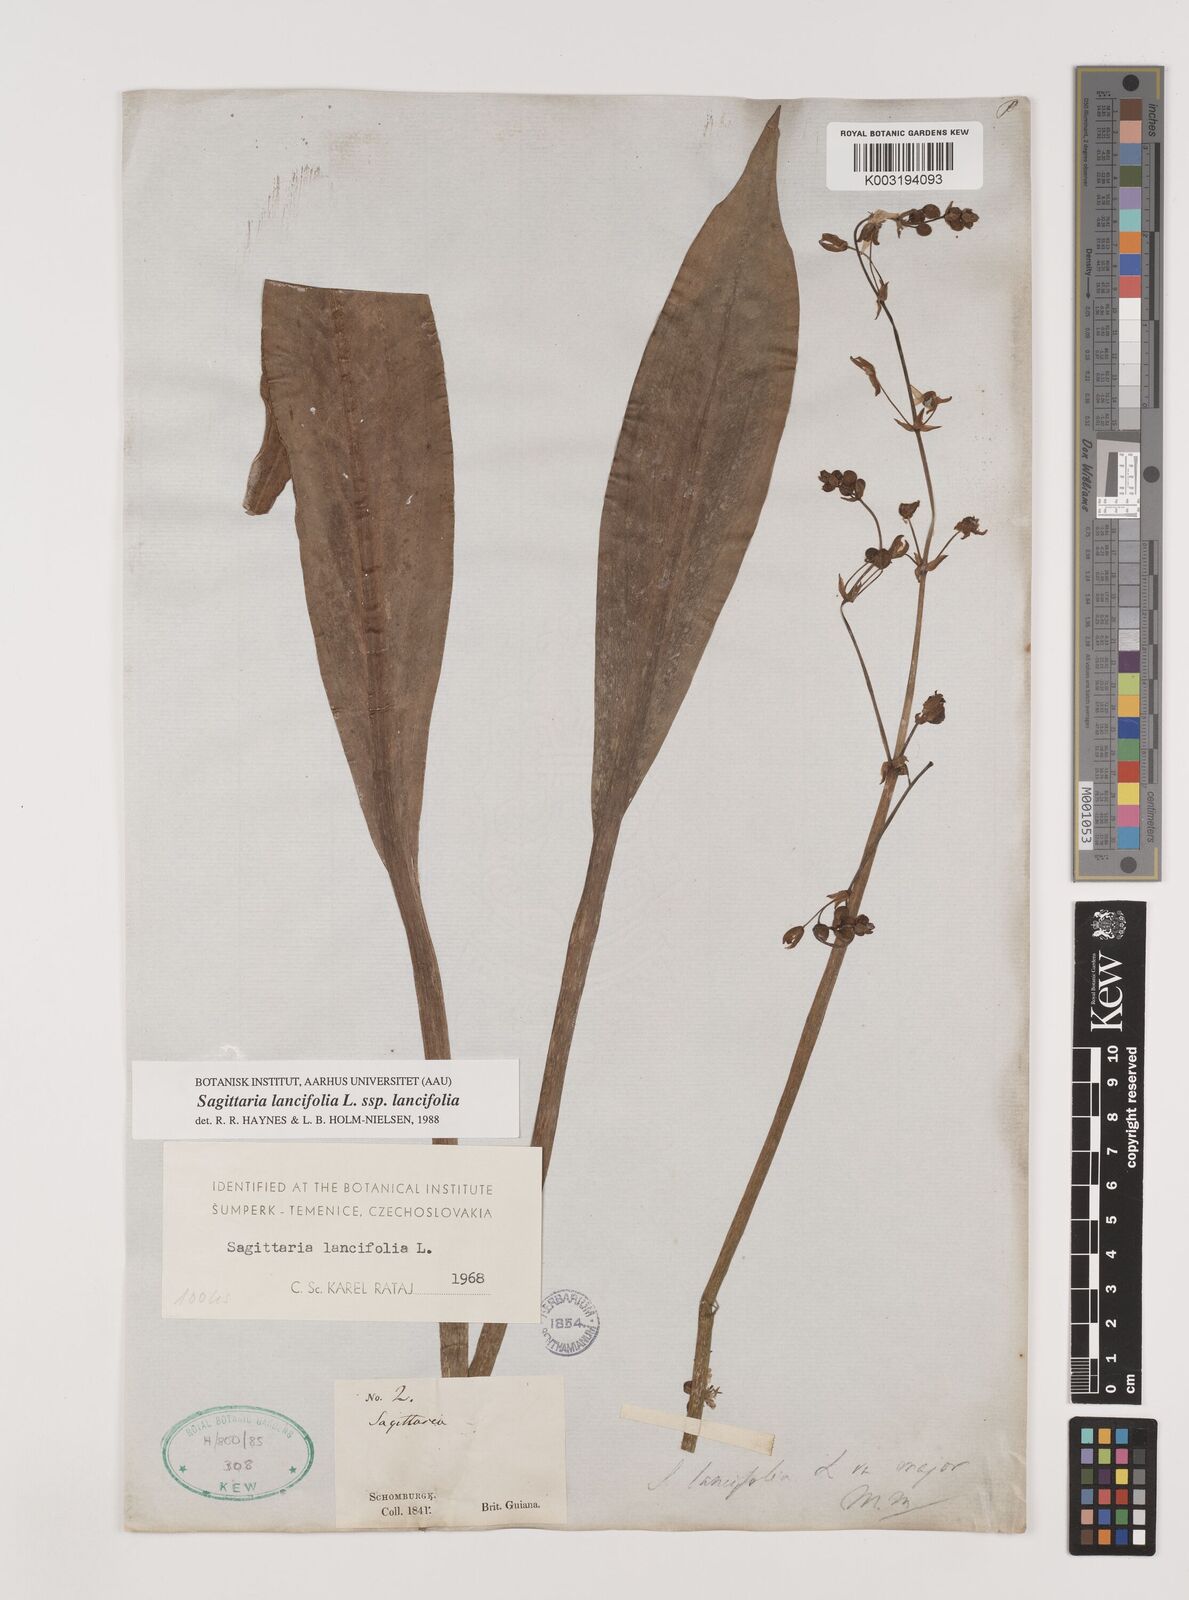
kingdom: Plantae
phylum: Tracheophyta
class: Liliopsida
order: Alismatales
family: Alismataceae
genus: Sagittaria
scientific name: Sagittaria lancifolia
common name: Lance-leaf arrowhead
